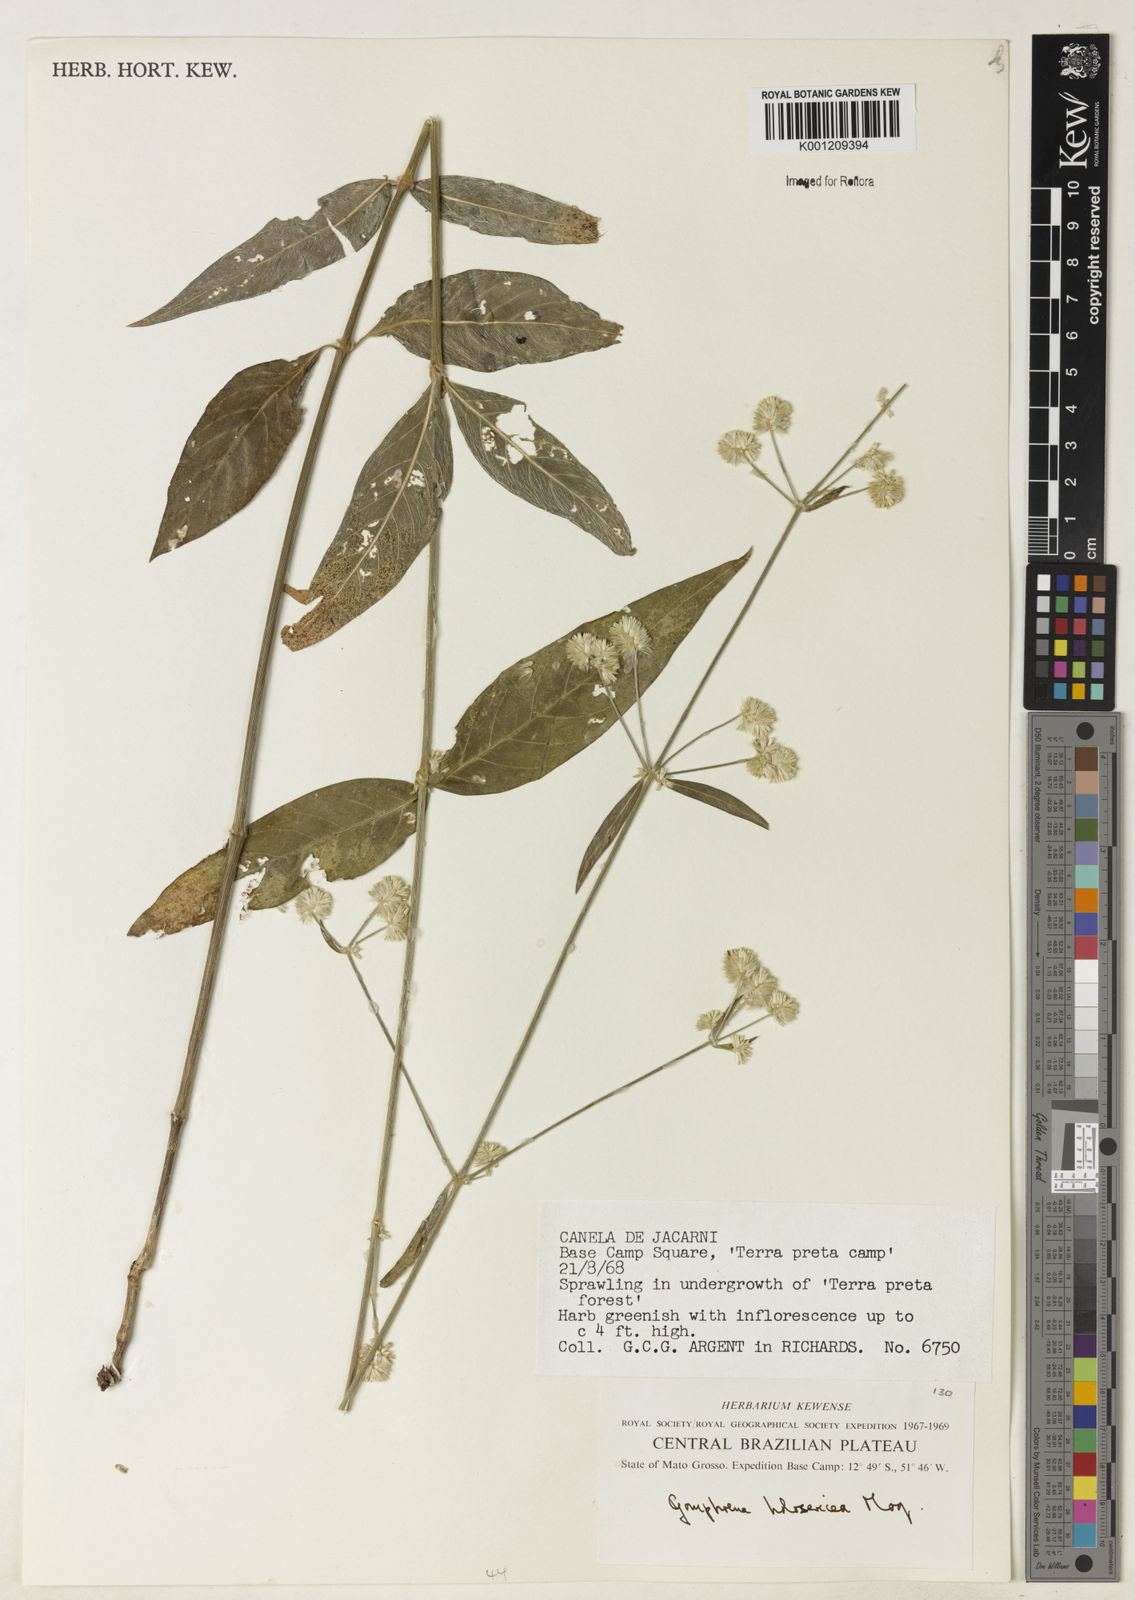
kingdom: Plantae
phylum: Tracheophyta
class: Magnoliopsida
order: Caryophyllales
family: Amaranthaceae
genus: Gomphrena
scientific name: Gomphrena vaga
